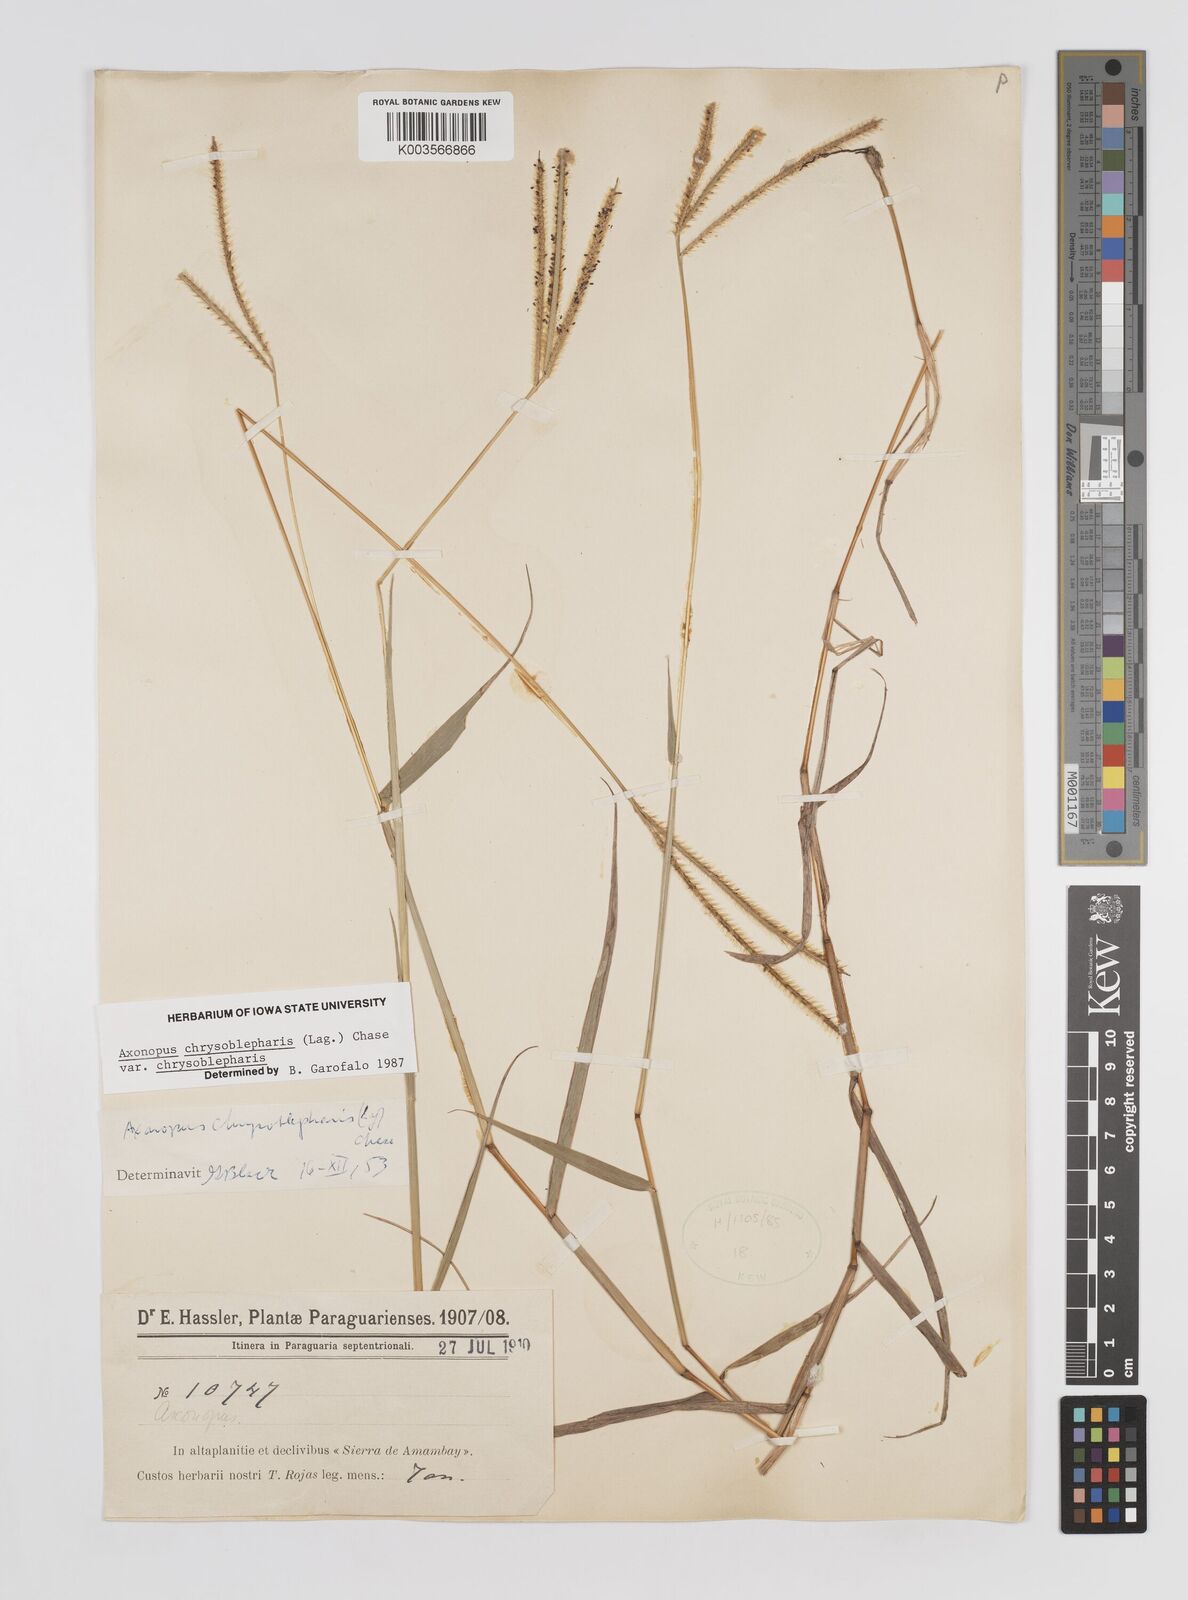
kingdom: Plantae
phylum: Tracheophyta
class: Liliopsida
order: Poales
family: Poaceae
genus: Axonopus
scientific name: Axonopus chrysoblepharis
